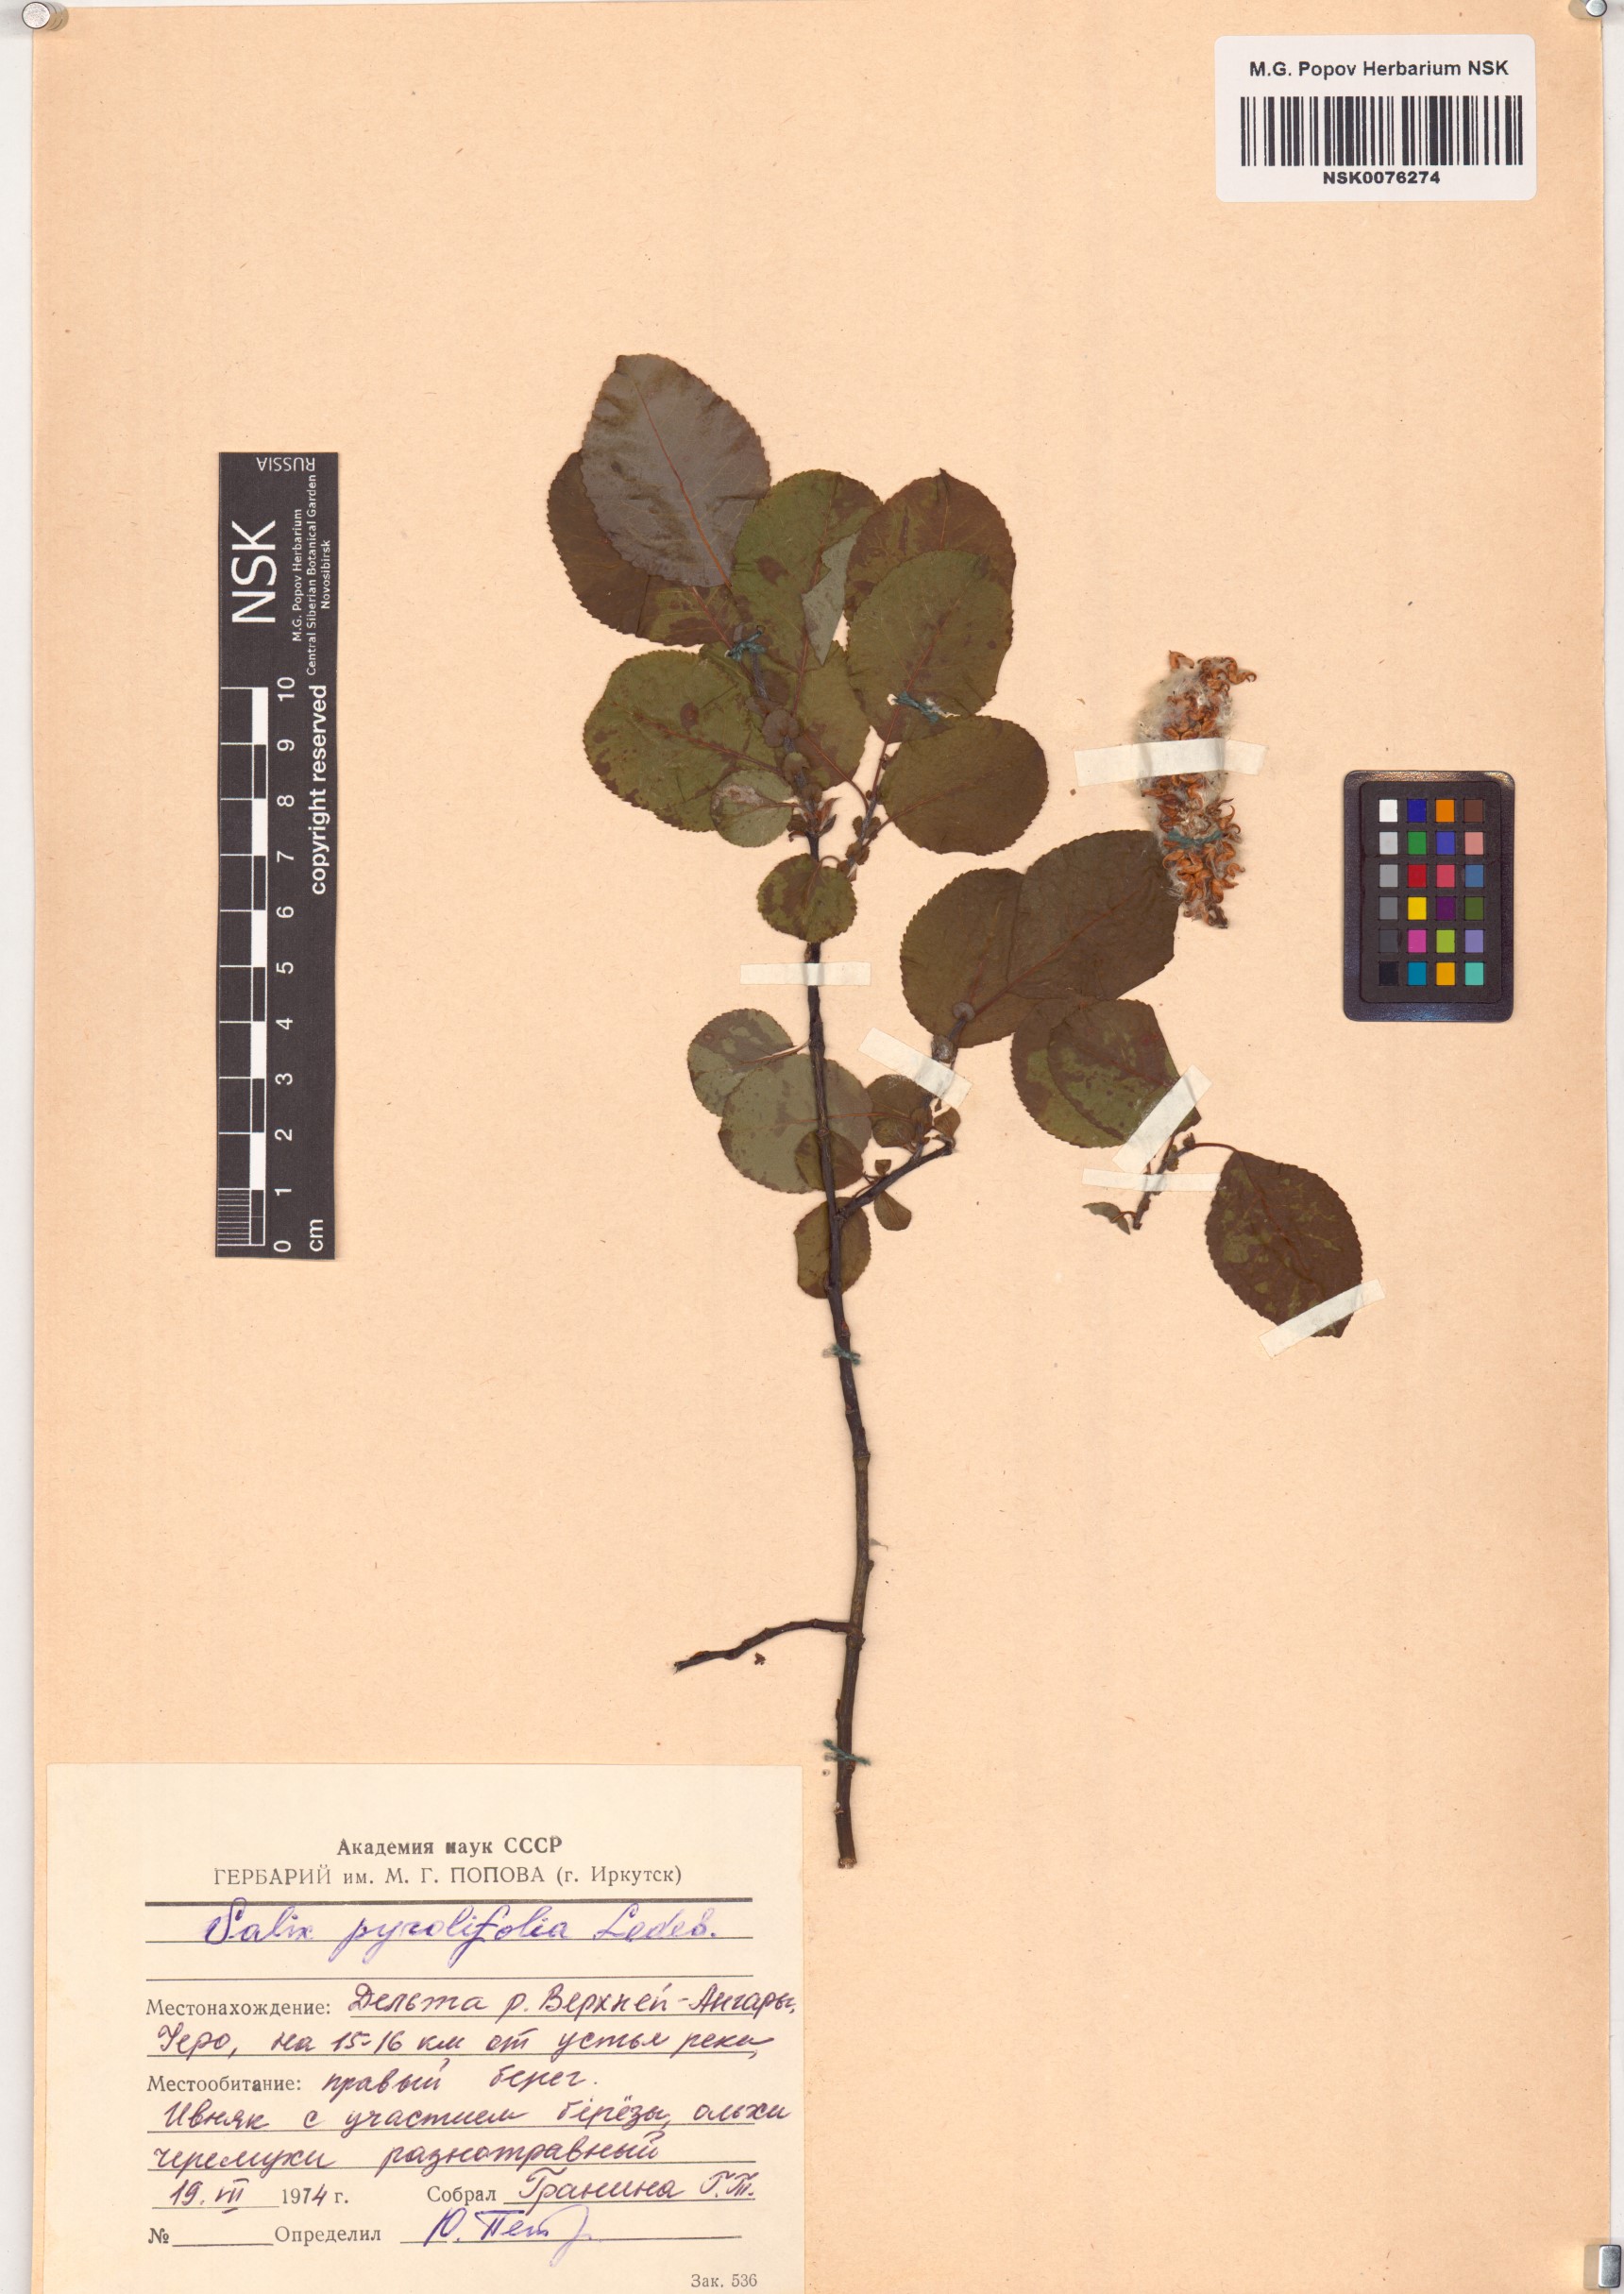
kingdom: Plantae
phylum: Tracheophyta
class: Magnoliopsida
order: Malpighiales
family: Salicaceae
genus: Salix
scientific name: Salix pyrolifolia
